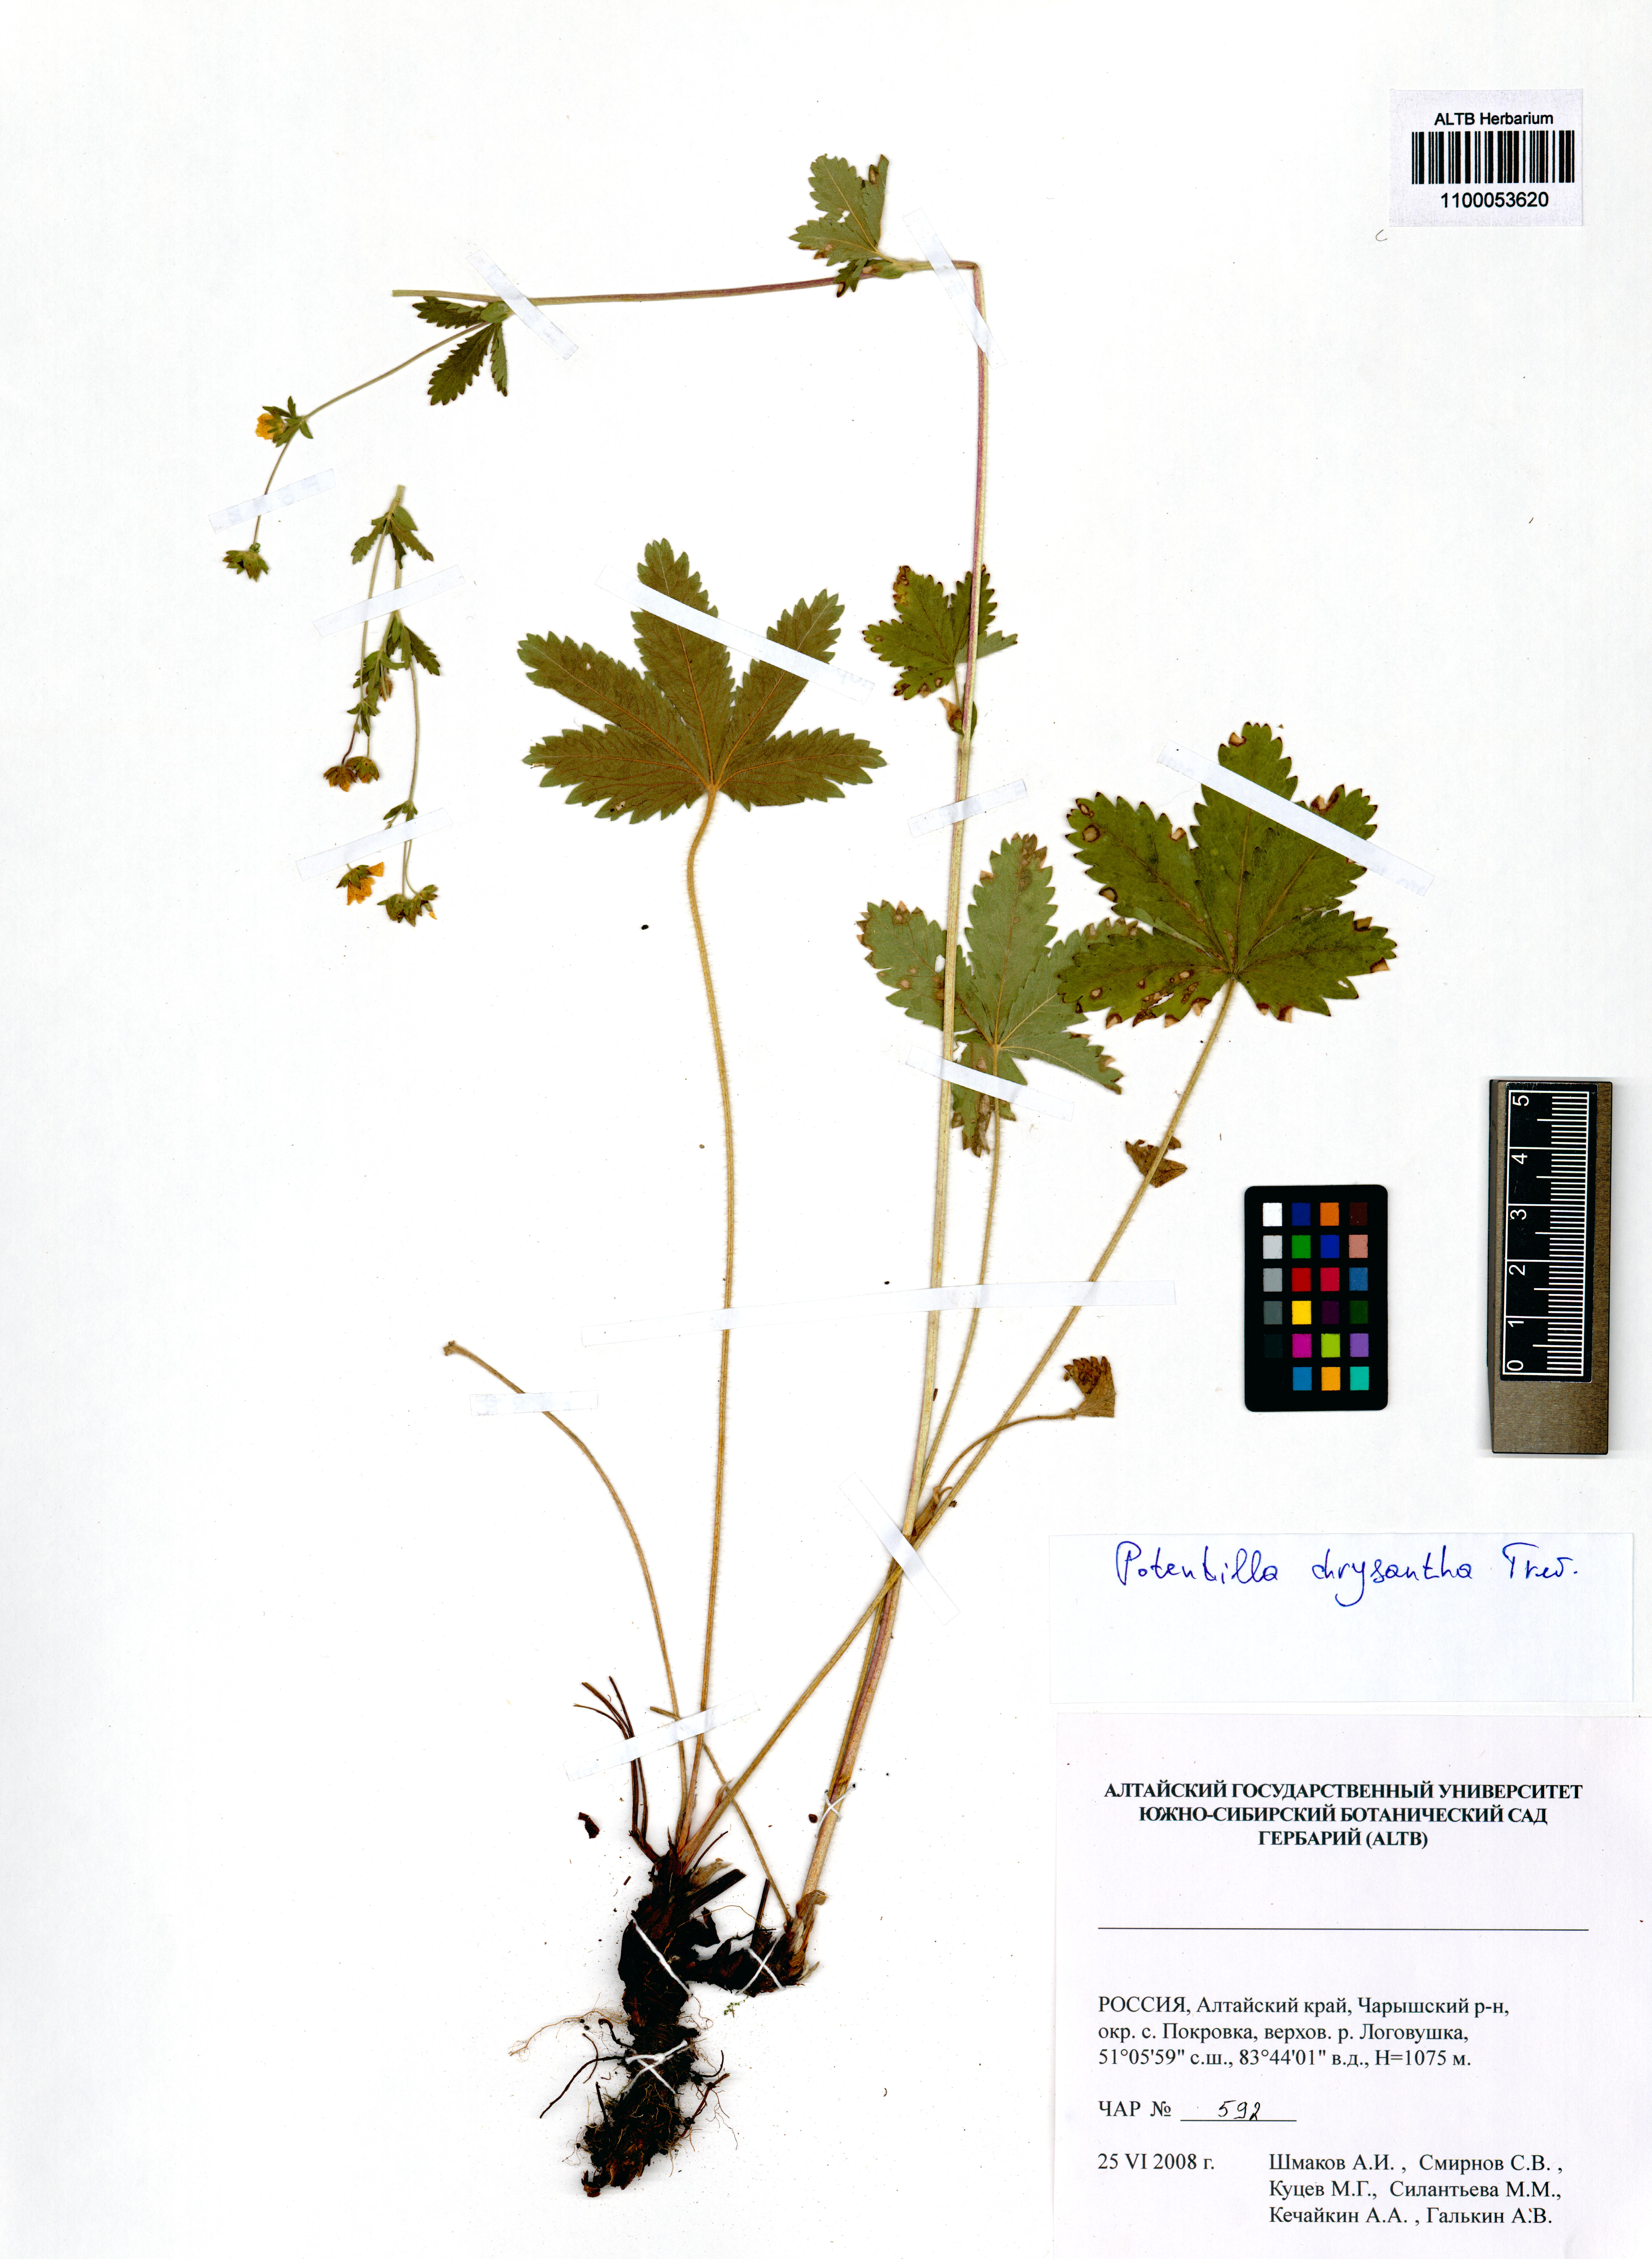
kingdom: Plantae
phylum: Tracheophyta
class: Magnoliopsida
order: Rosales
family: Rosaceae
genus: Potentilla
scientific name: Potentilla chrysantha
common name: Thuringian cinquefoil
